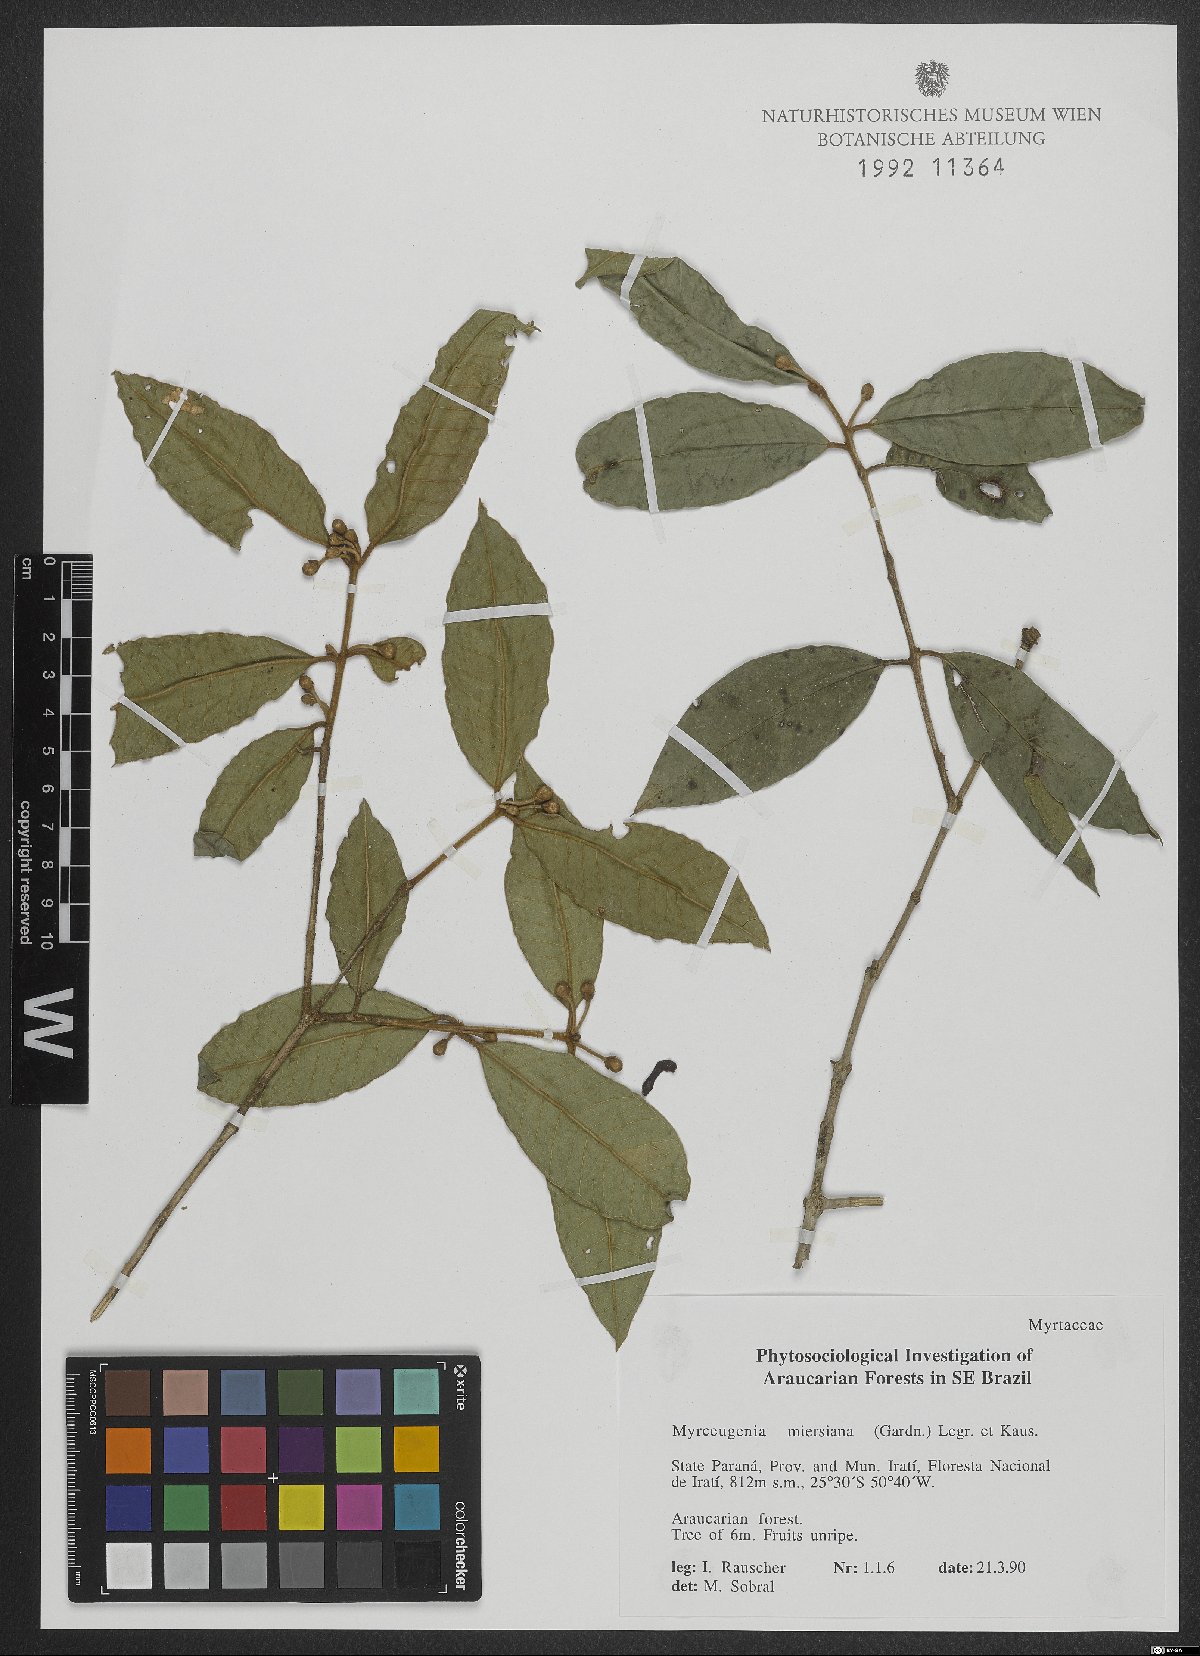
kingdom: Plantae
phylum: Tracheophyta
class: Magnoliopsida
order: Myrtales
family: Myrtaceae
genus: Myrceugenia
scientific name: Myrceugenia miersiana
